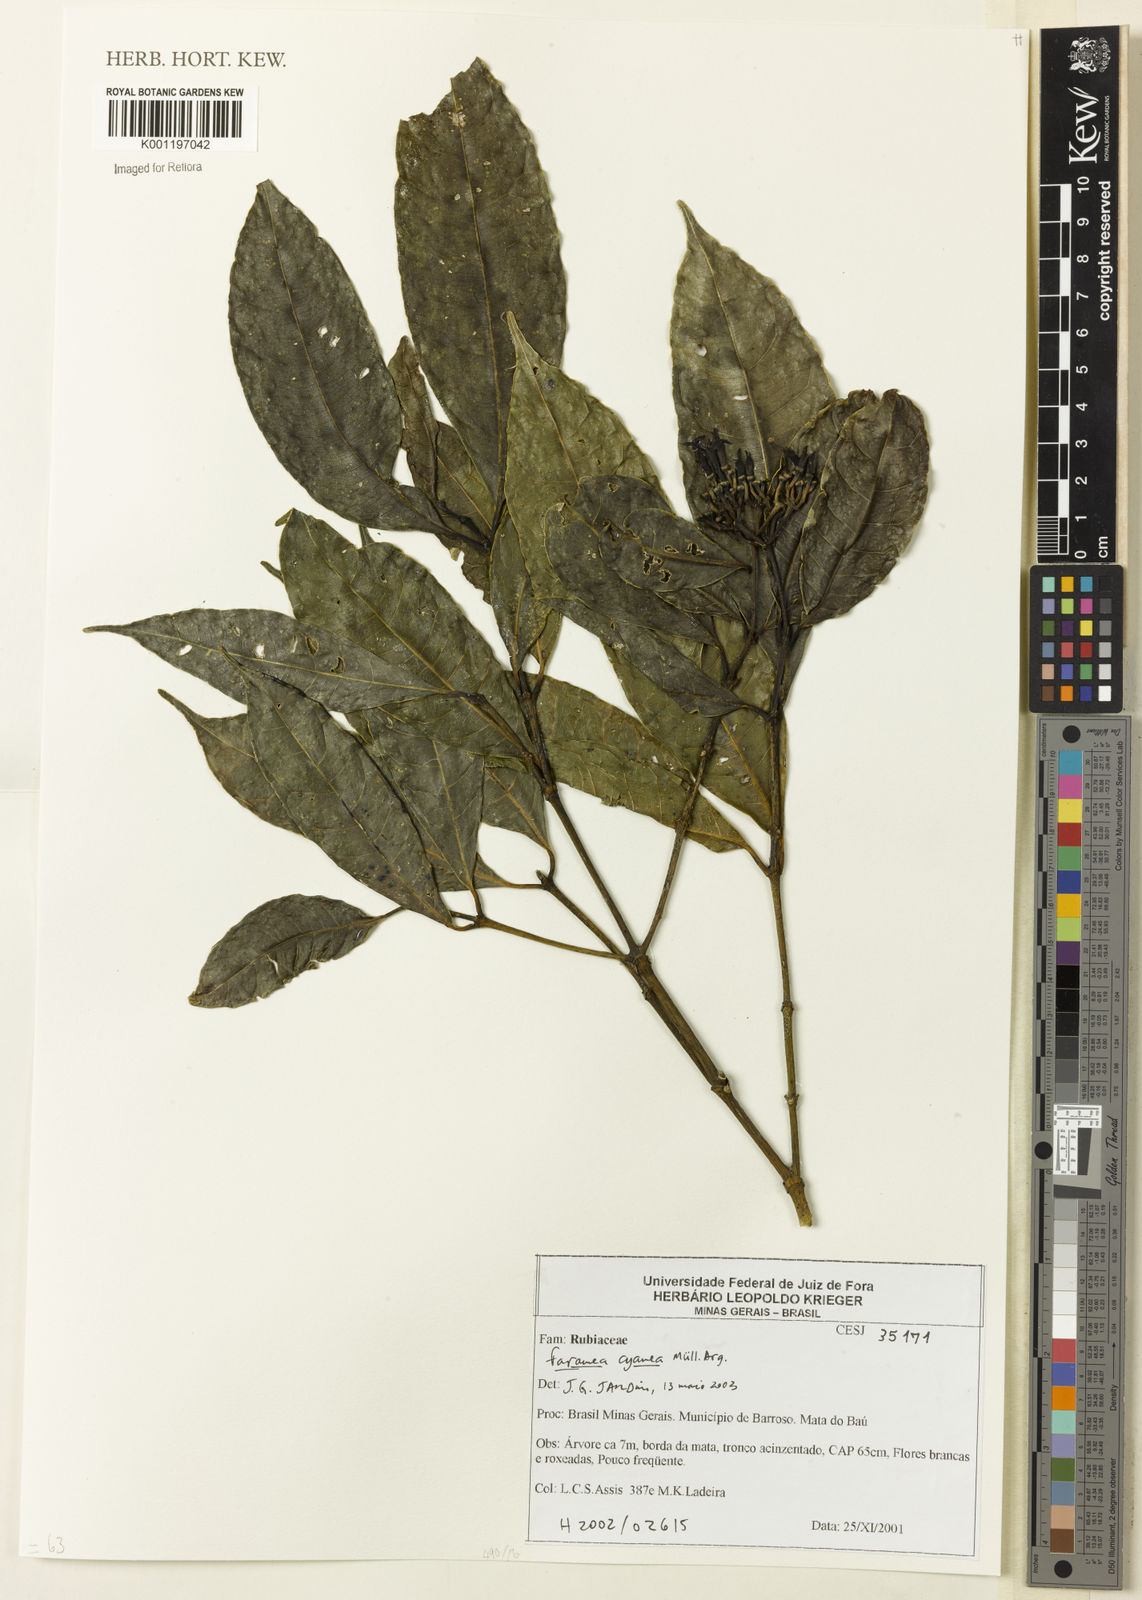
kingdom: Plantae
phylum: Tracheophyta
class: Magnoliopsida
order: Gentianales
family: Rubiaceae
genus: Faramea
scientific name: Faramea nigrescens
